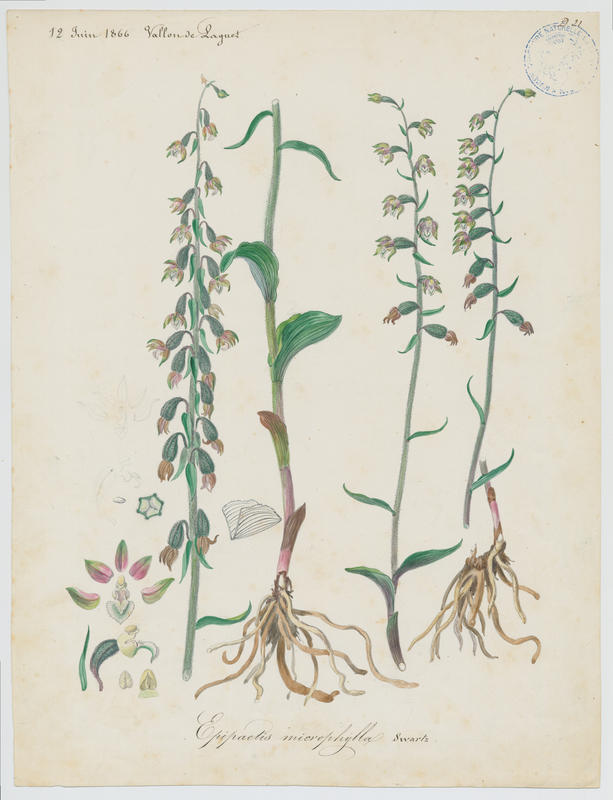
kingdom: Plantae
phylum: Tracheophyta
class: Liliopsida
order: Asparagales
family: Orchidaceae
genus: Epipactis
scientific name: Epipactis microphylla
